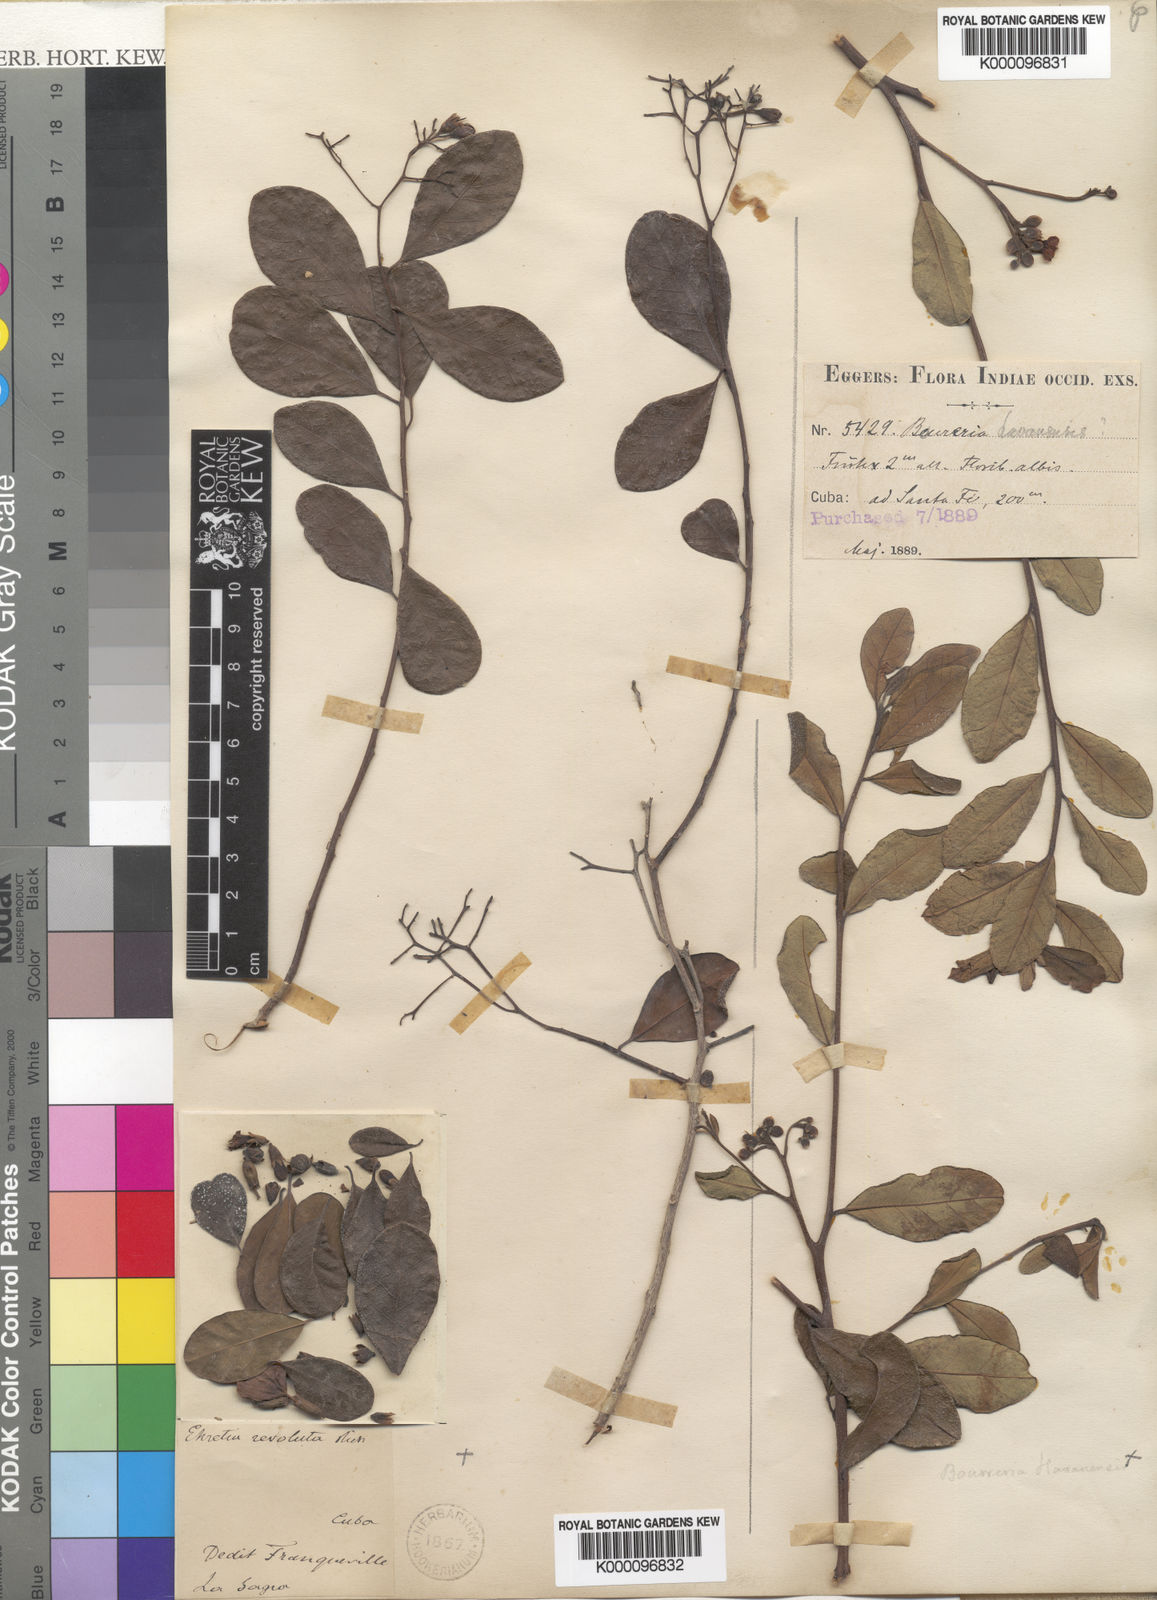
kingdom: Plantae
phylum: Tracheophyta
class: Magnoliopsida
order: Boraginales
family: Ehretiaceae
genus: Bourreria
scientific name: Bourreria succulenta
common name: Cherry
